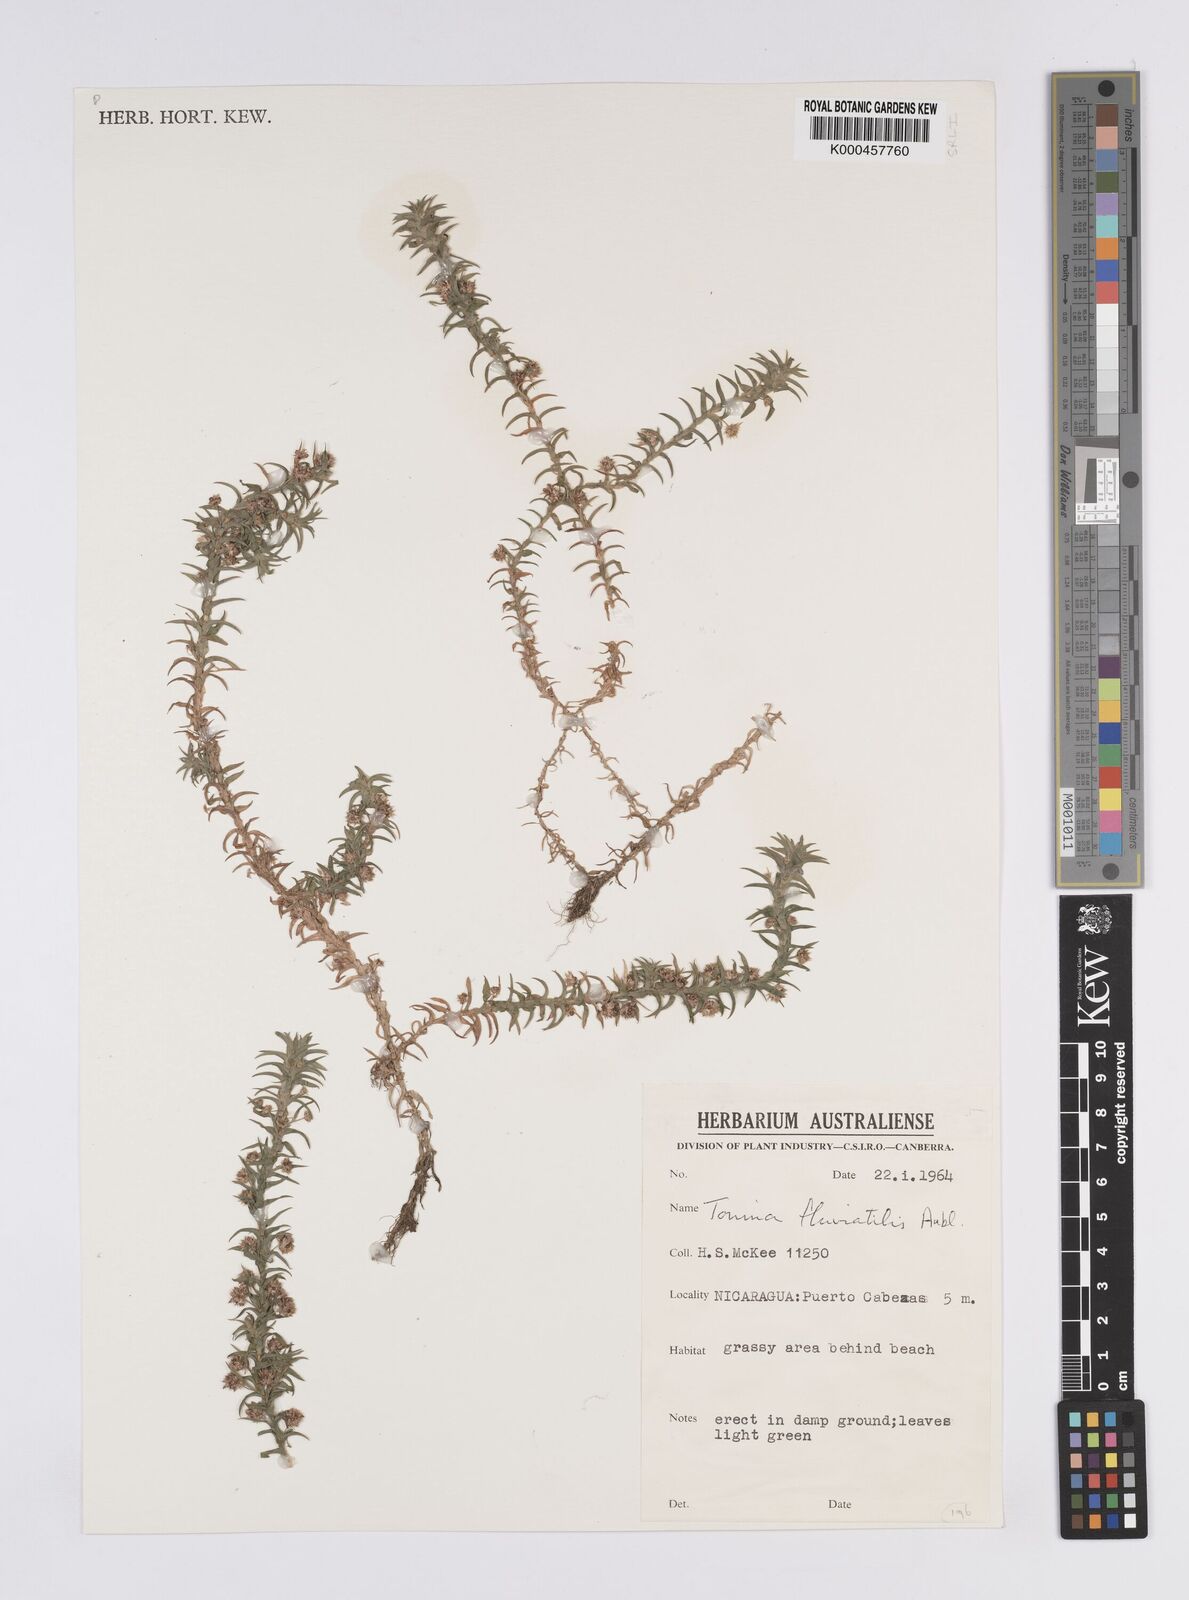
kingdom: Plantae
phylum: Tracheophyta
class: Liliopsida
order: Poales
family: Eriocaulaceae
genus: Paepalanthus
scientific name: Paepalanthus fluviatilis
